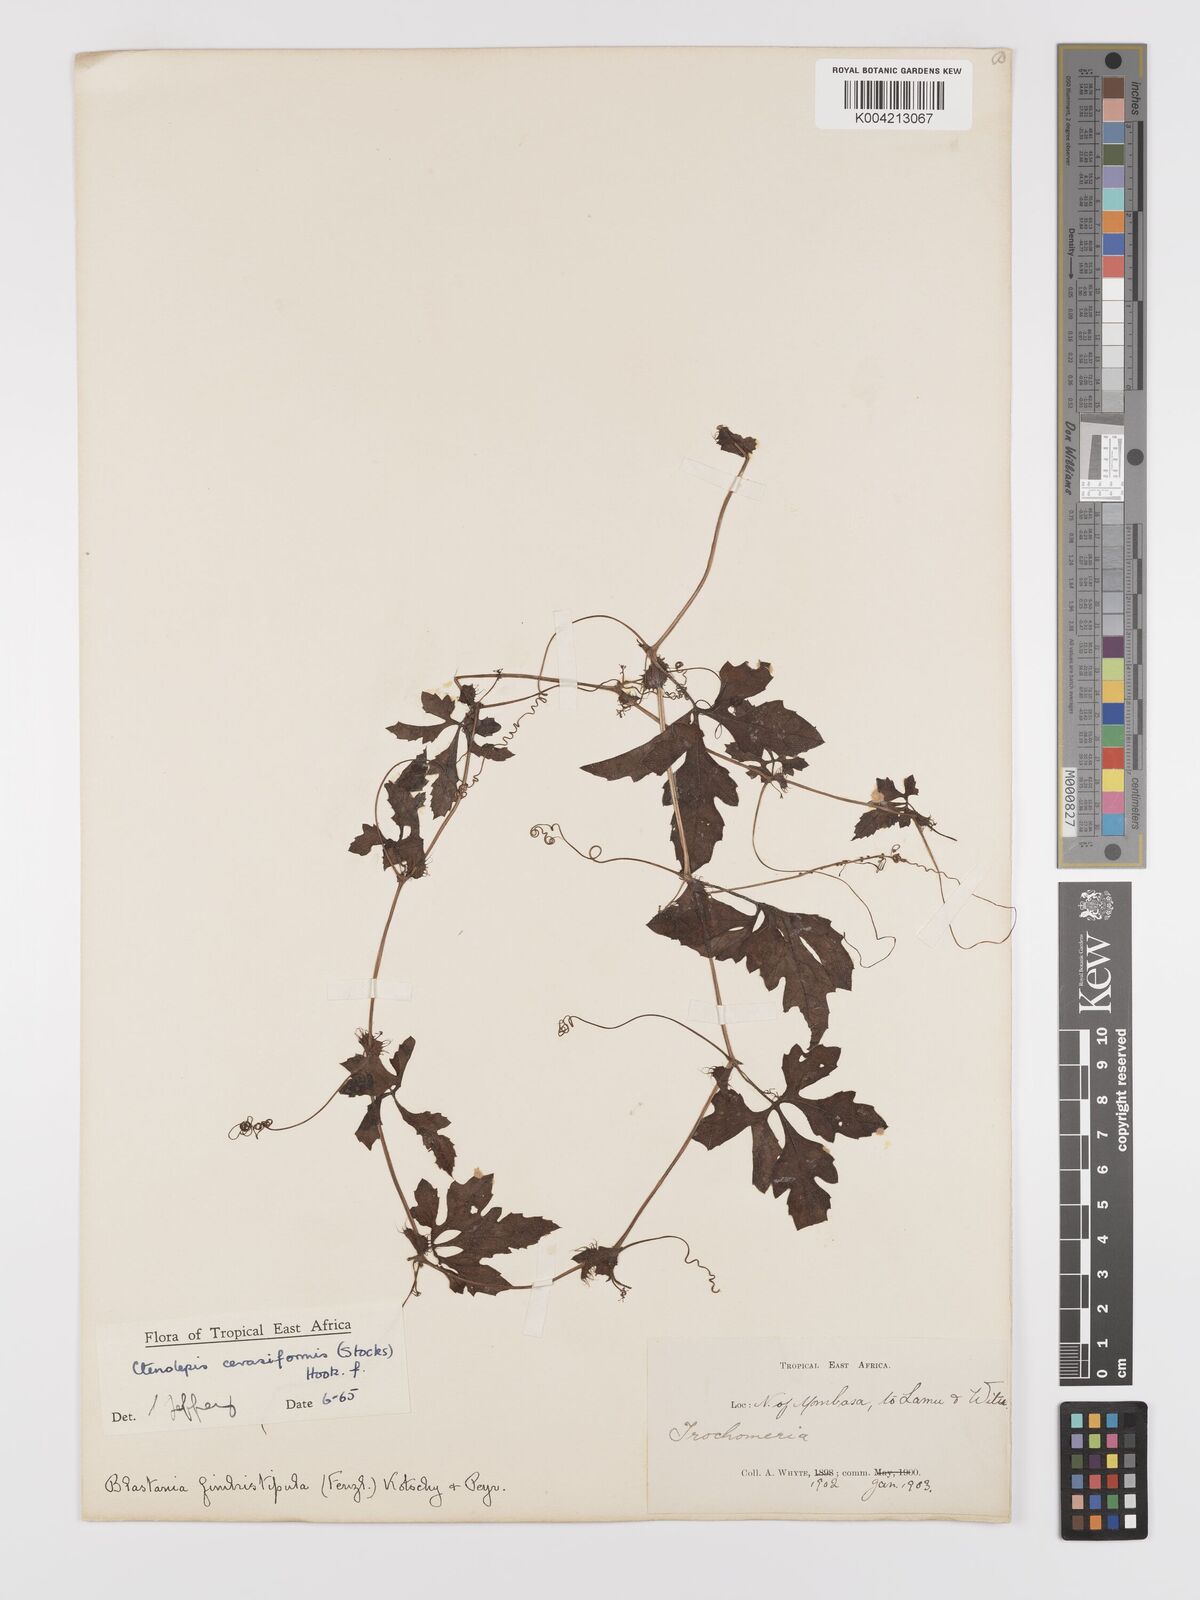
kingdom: Plantae
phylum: Tracheophyta
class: Magnoliopsida
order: Cucurbitales
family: Cucurbitaceae
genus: Blastania
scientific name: Blastania cerasiformis
